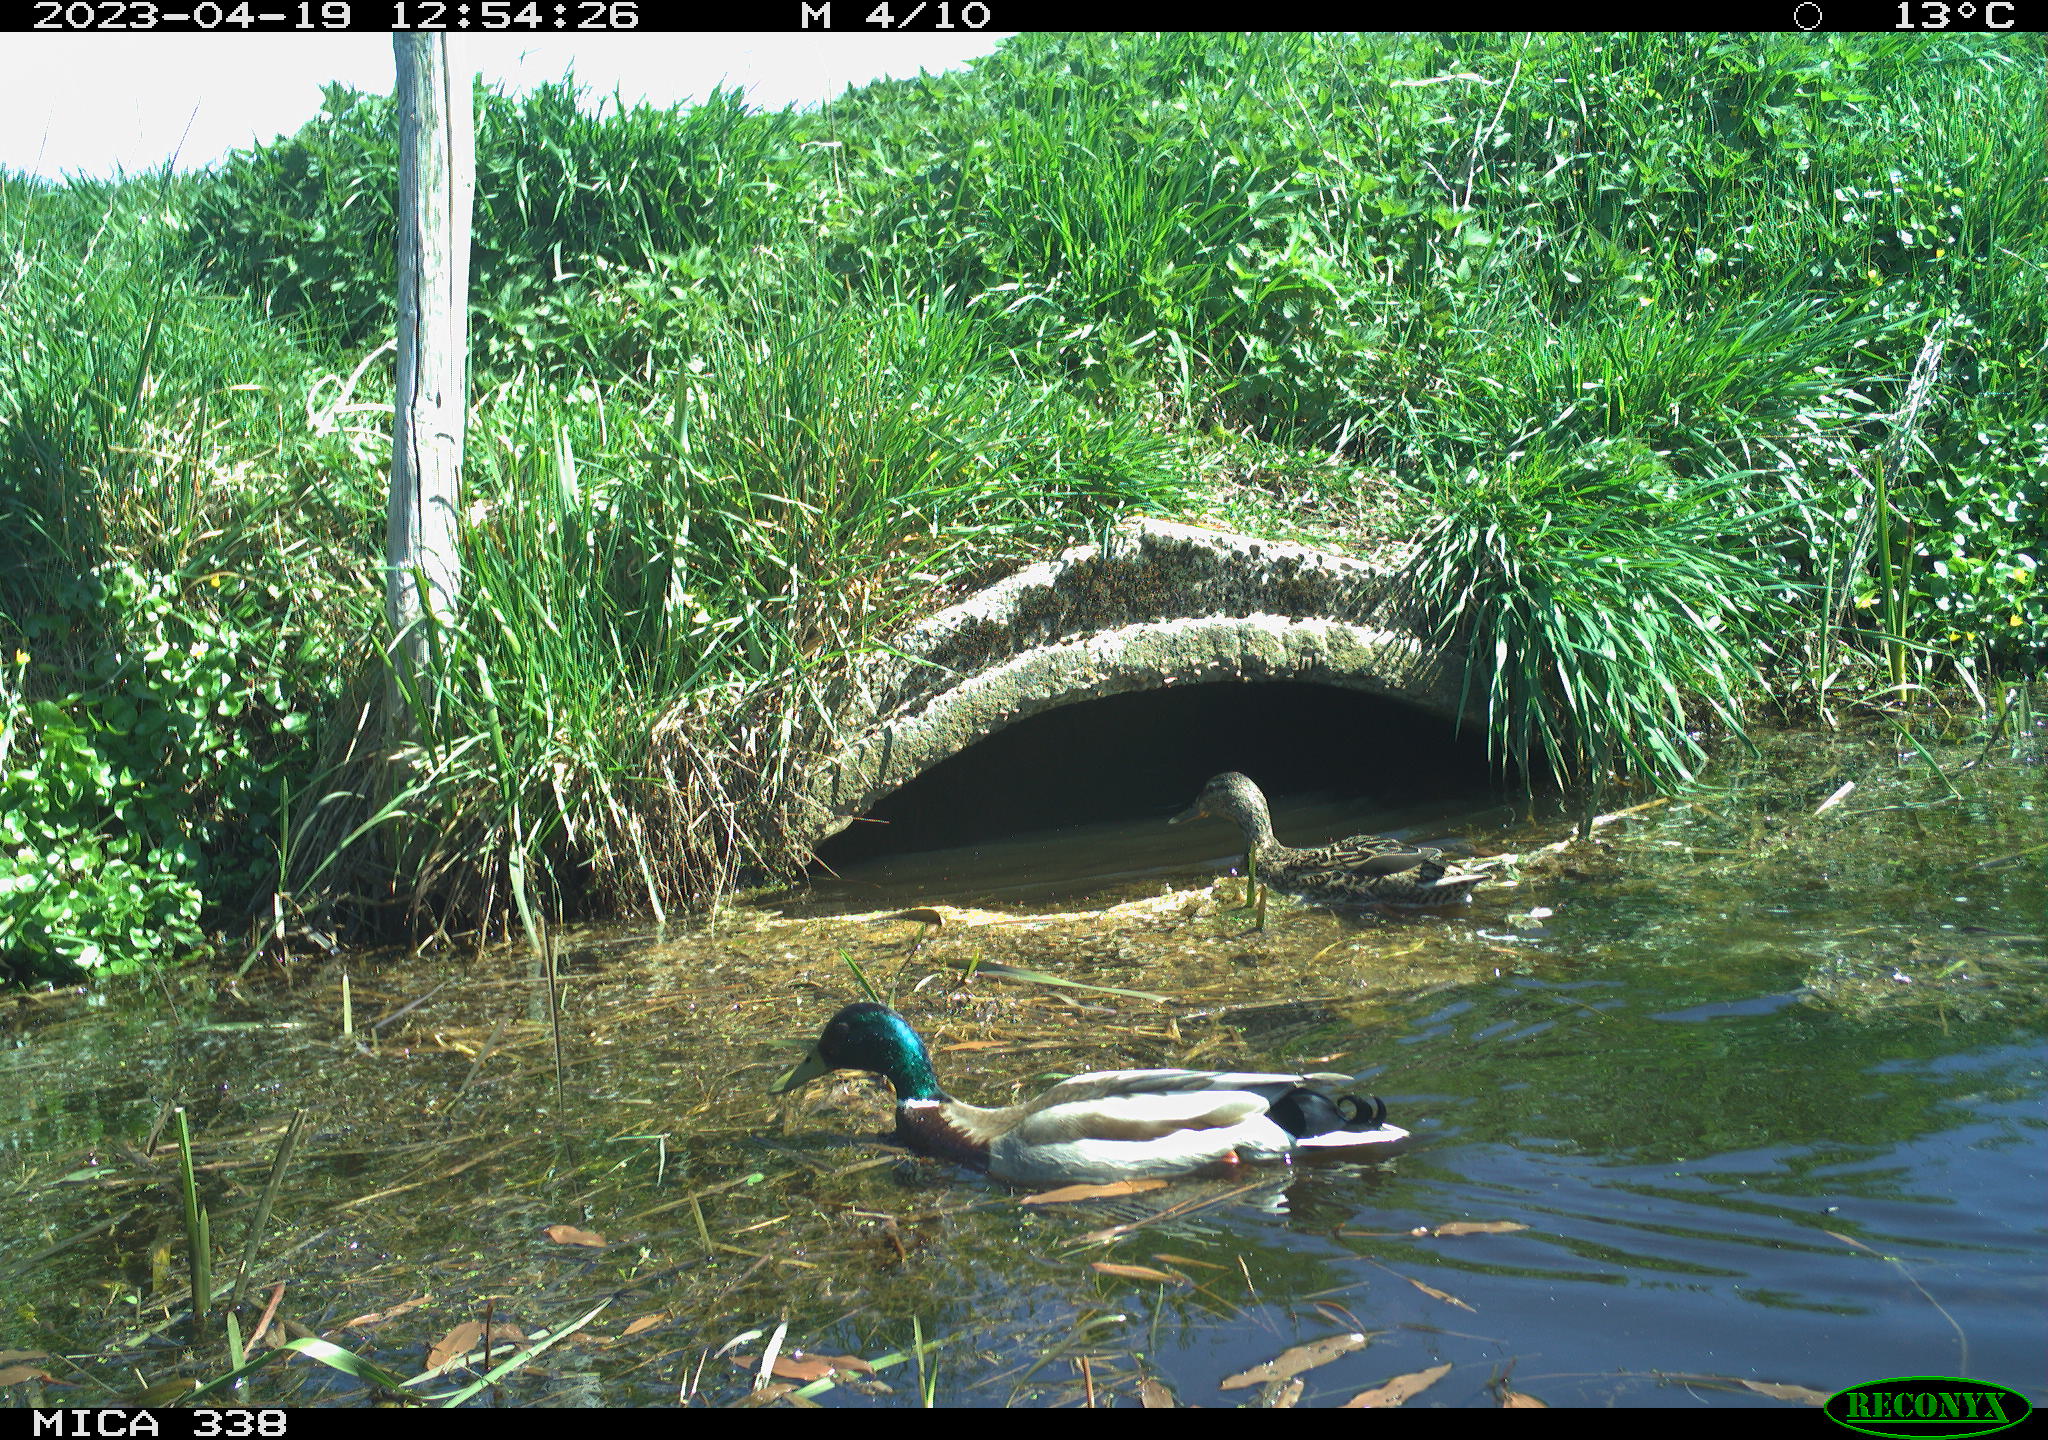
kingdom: Animalia
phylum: Chordata
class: Aves
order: Anseriformes
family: Anatidae
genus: Anas
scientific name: Anas
